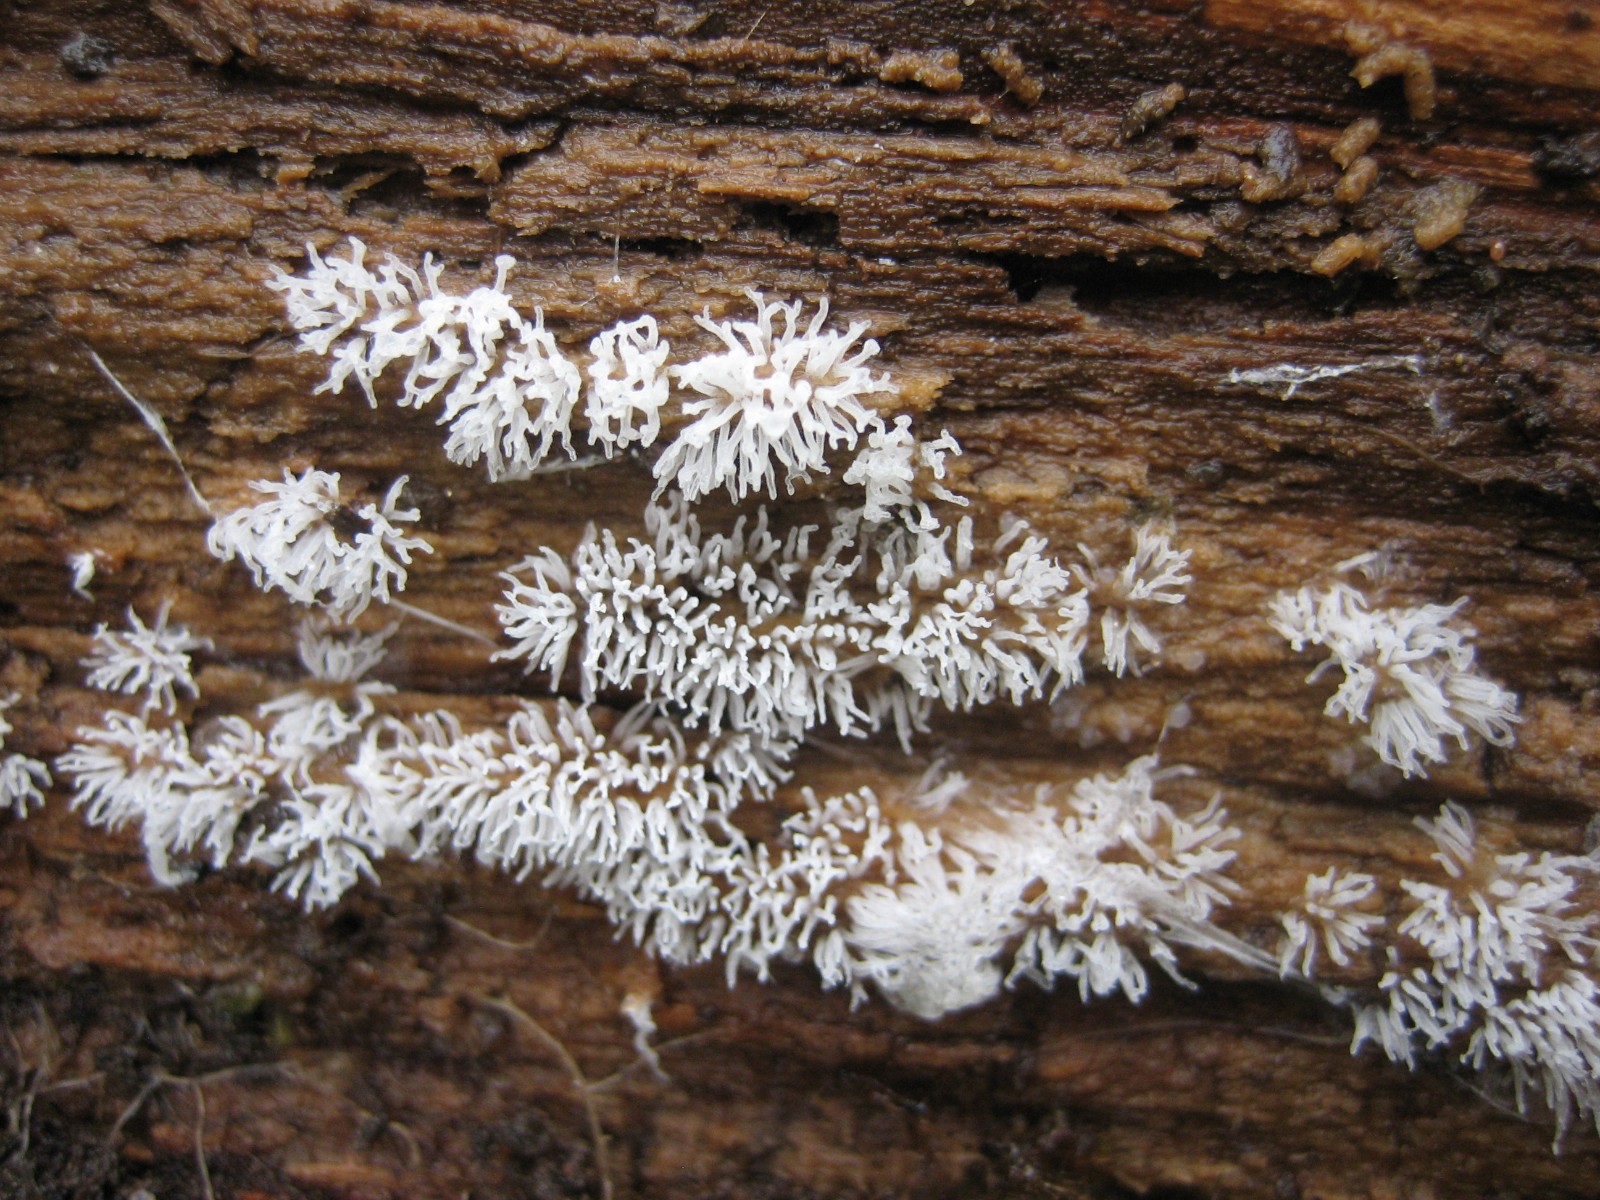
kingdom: Protozoa
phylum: Mycetozoa
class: Protosteliomycetes
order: Ceratiomyxales
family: Ceratiomyxaceae
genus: Ceratiomyxa
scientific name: Ceratiomyxa fruticulosa
